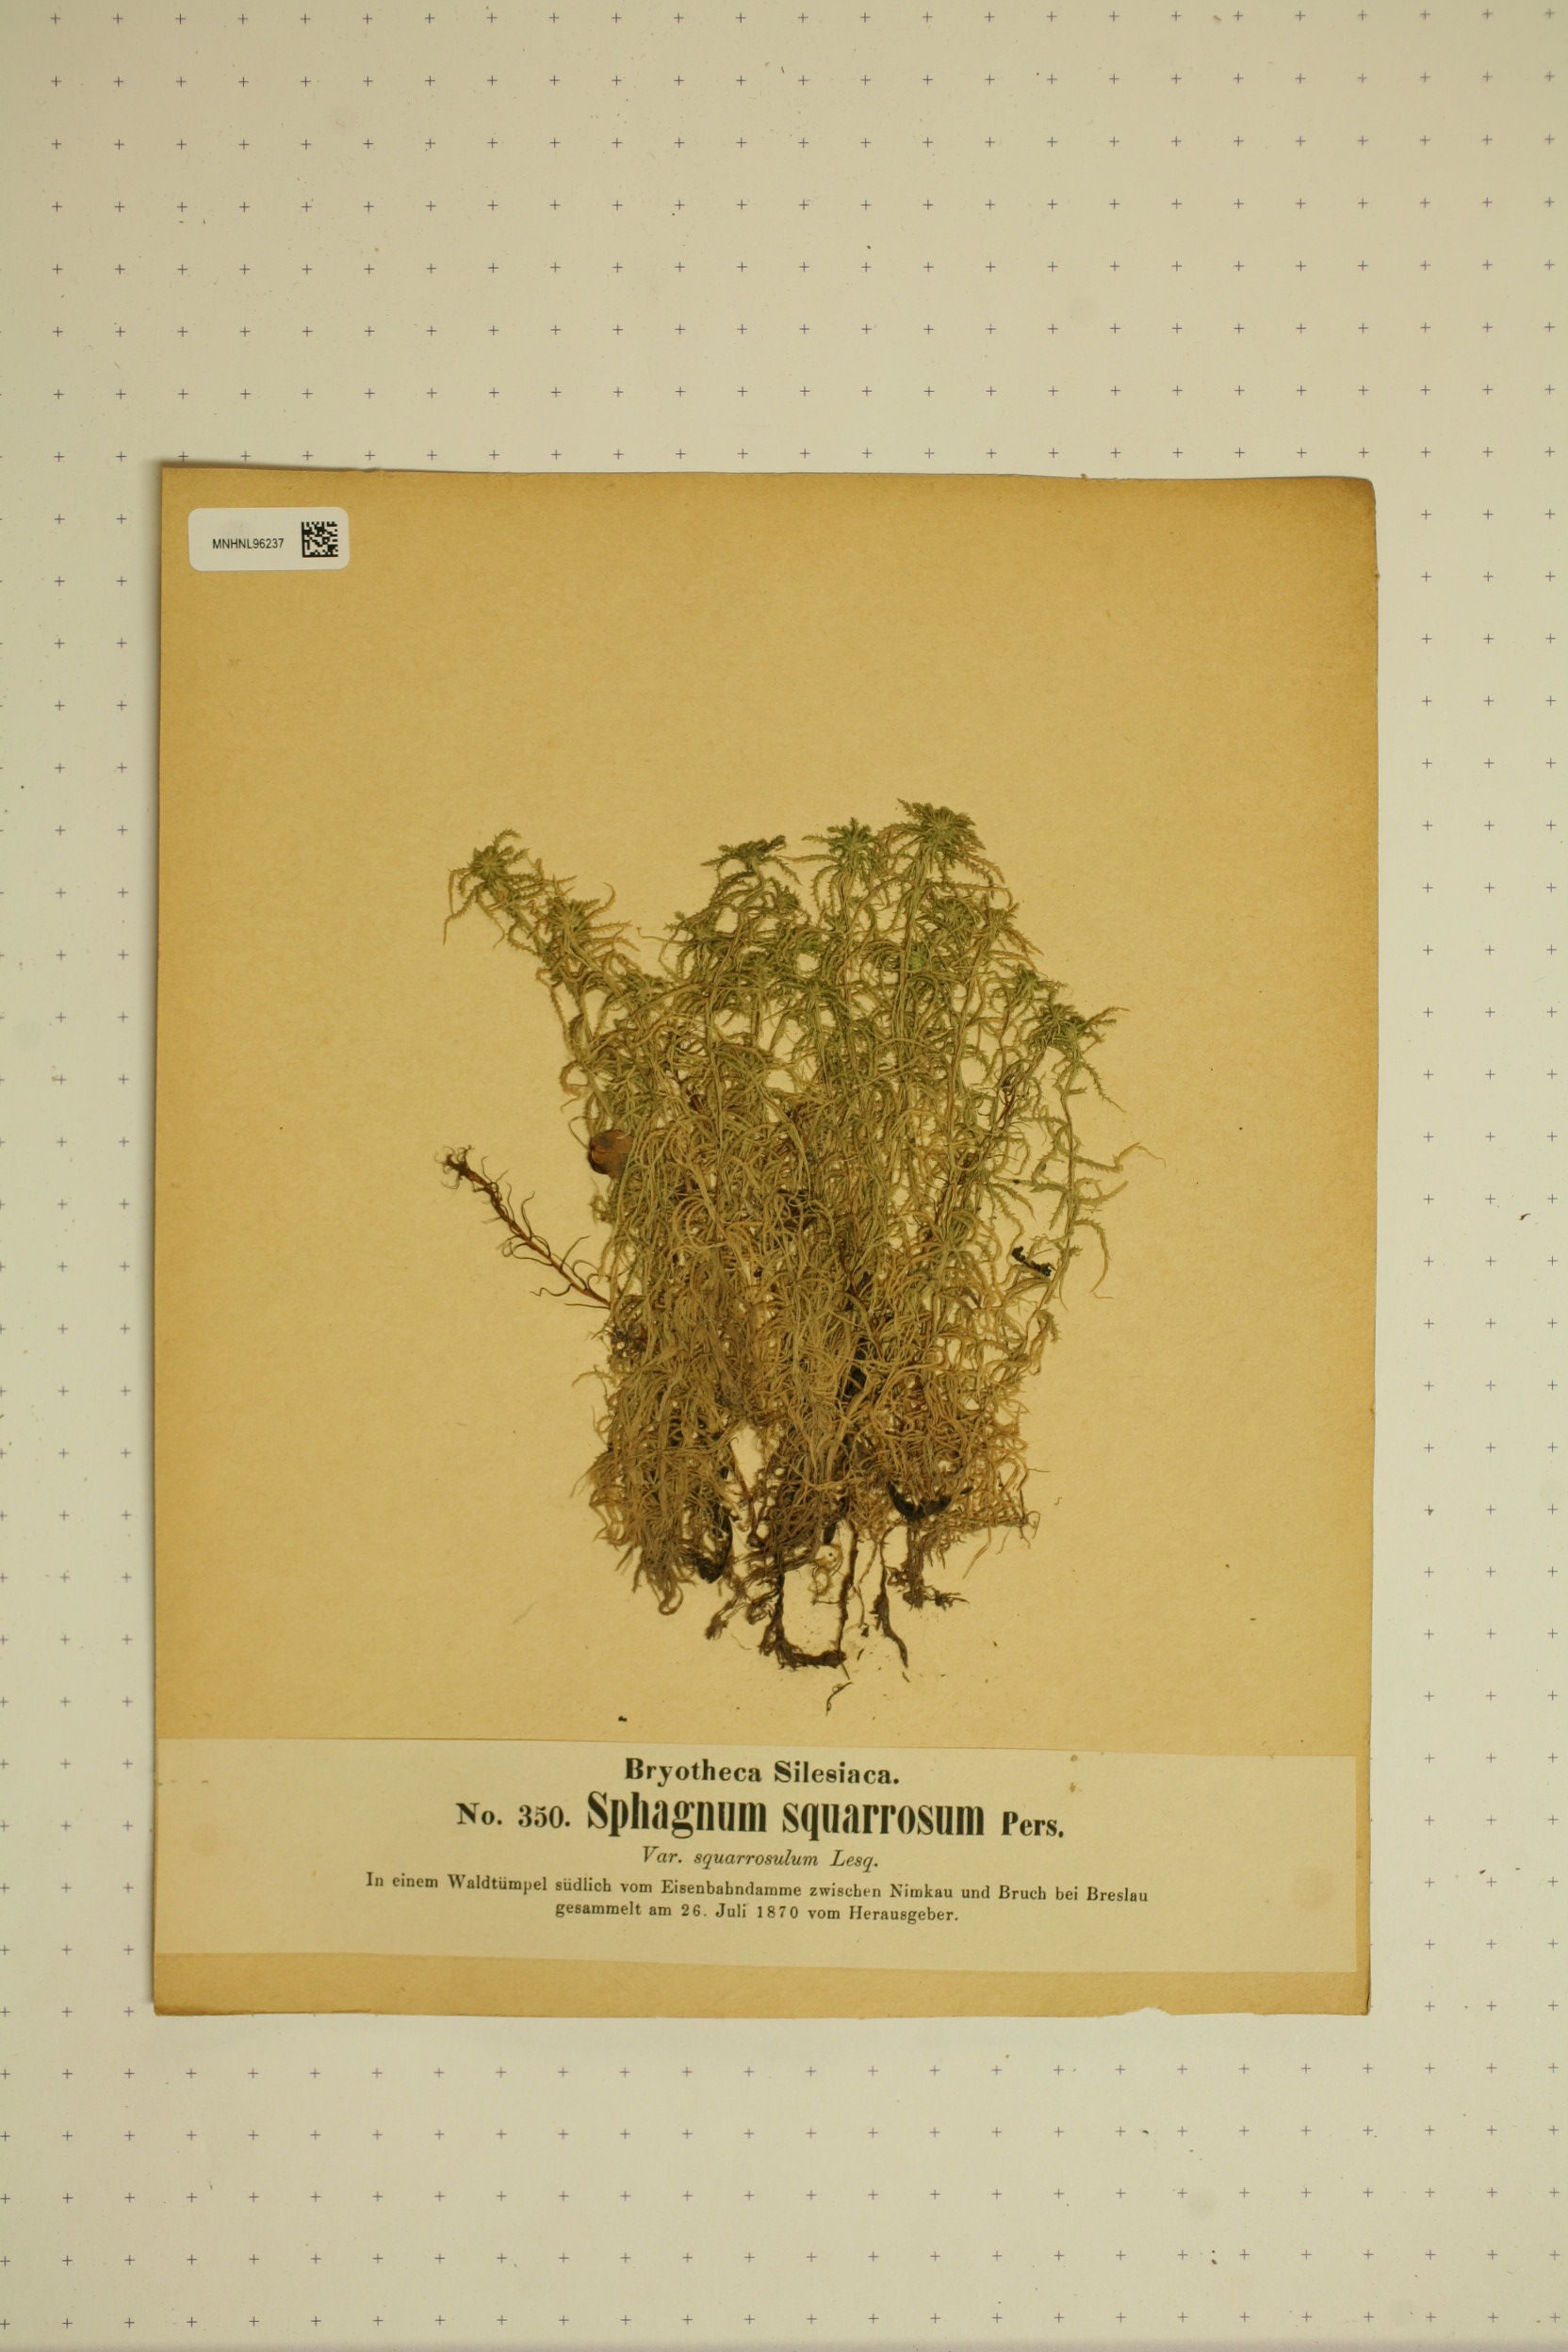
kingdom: Plantae
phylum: Bryophyta
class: Sphagnopsida
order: Sphagnales
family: Sphagnaceae
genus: Sphagnum
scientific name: Sphagnum teres
